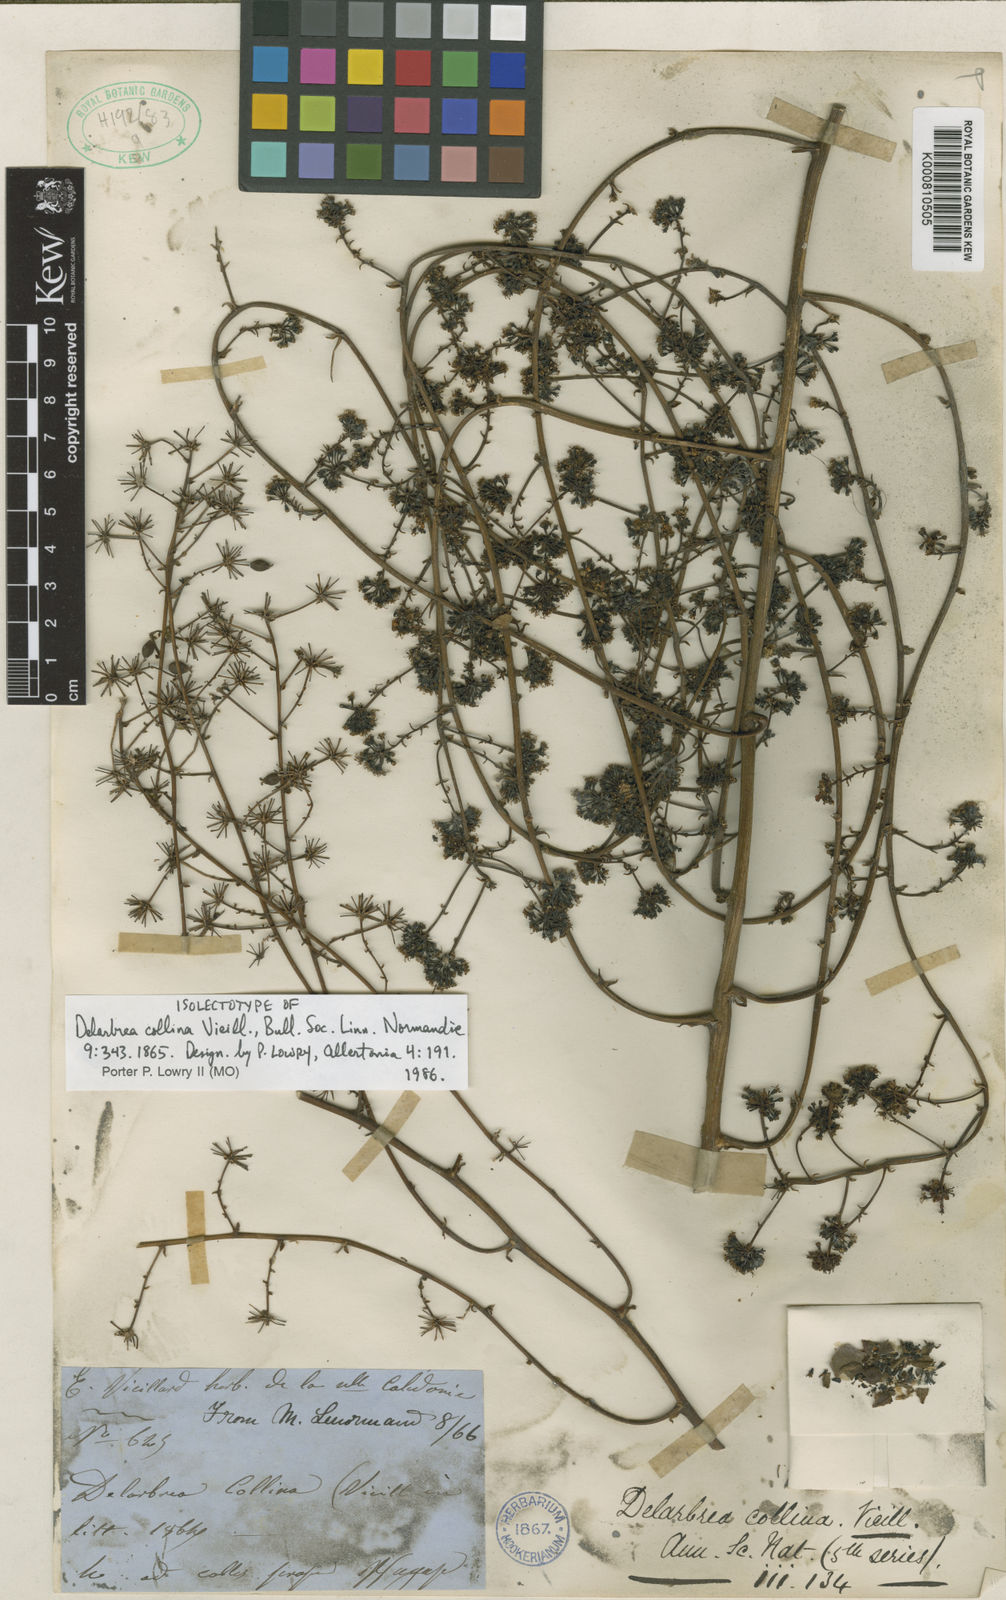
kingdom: Plantae
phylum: Tracheophyta
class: Magnoliopsida
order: Apiales
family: Myodocarpaceae
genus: Delarbrea
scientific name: Delarbrea collina
